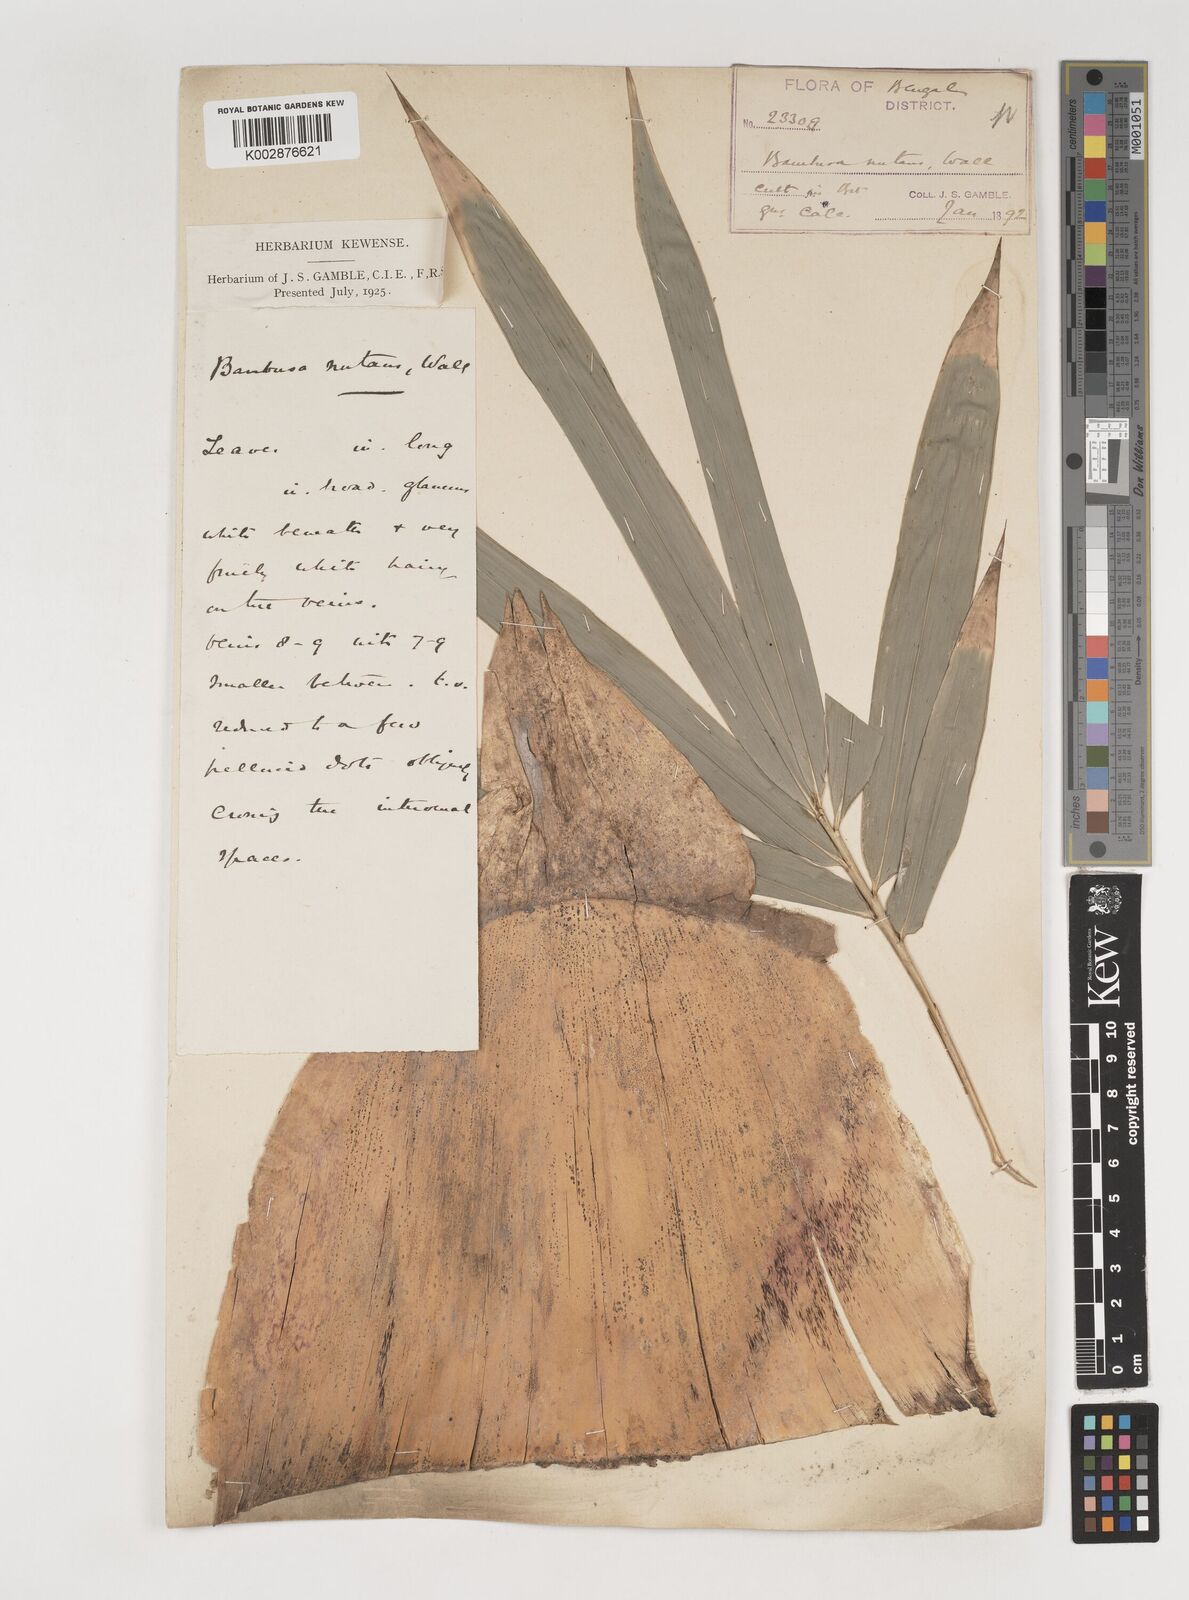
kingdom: Plantae
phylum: Tracheophyta
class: Liliopsida
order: Poales
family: Poaceae
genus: Bambusa
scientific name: Bambusa nutans
